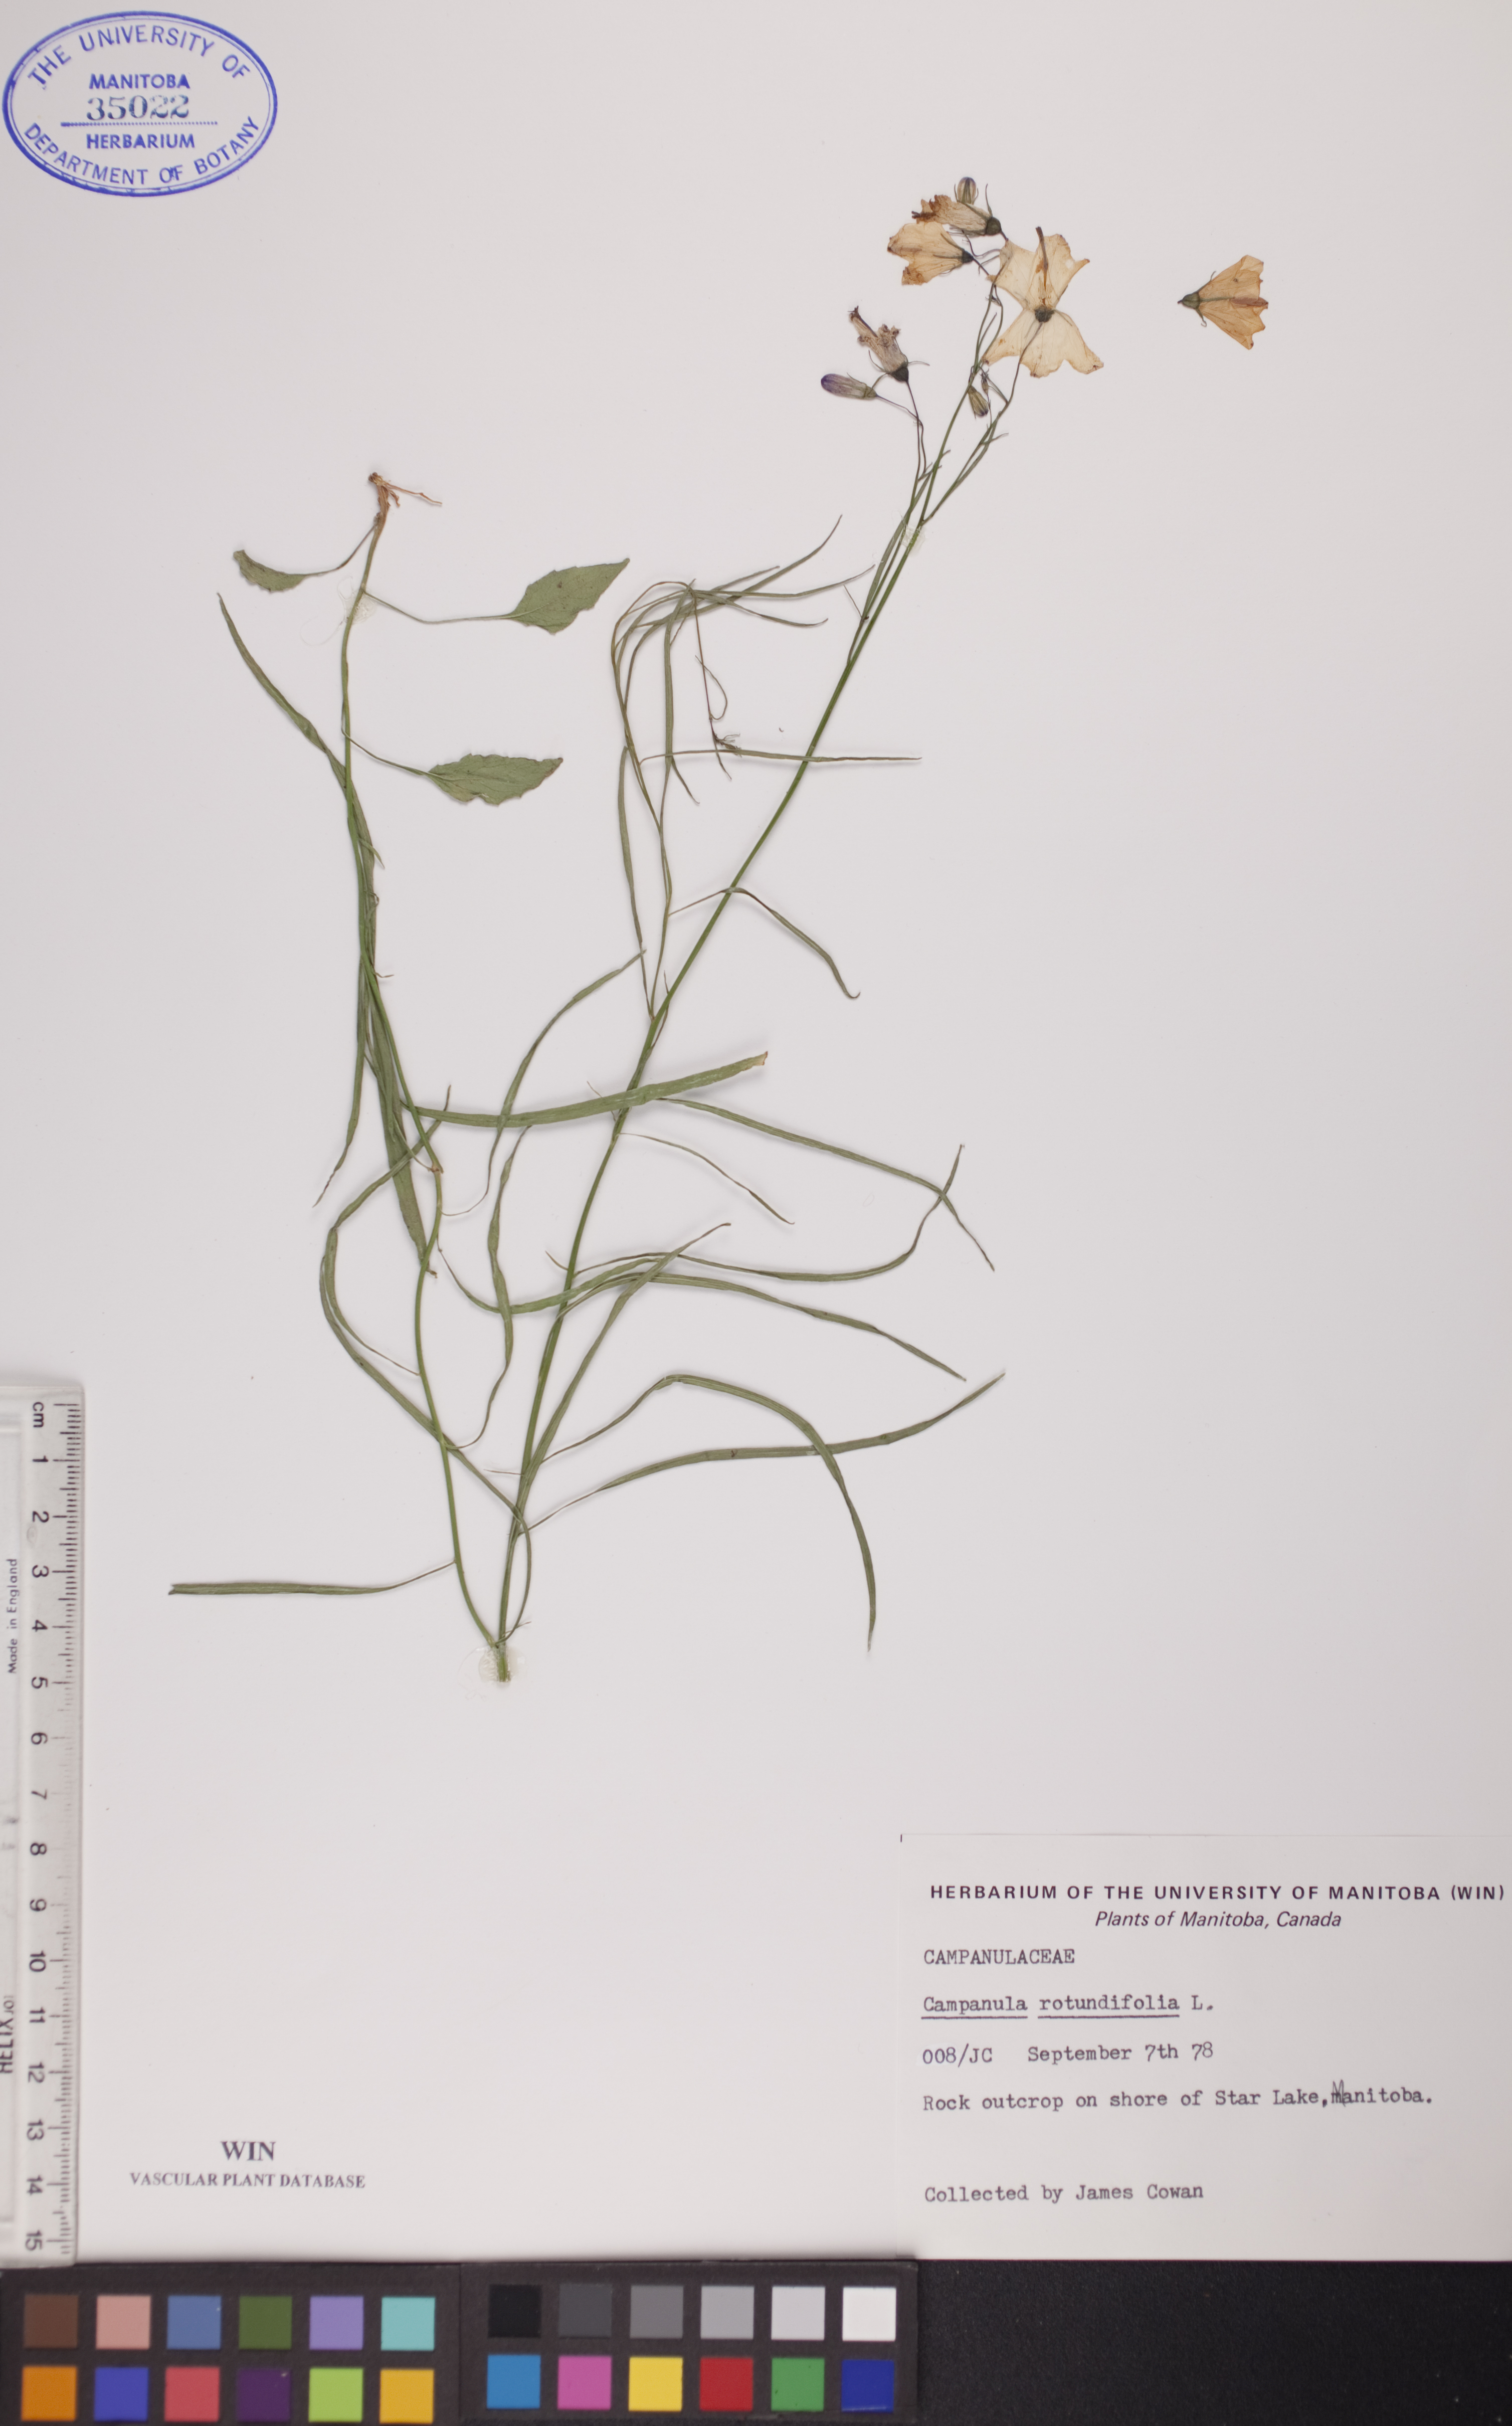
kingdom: Plantae
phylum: Tracheophyta
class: Magnoliopsida
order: Asterales
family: Campanulaceae
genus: Campanula
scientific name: Campanula rotundifolia
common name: Harebell
